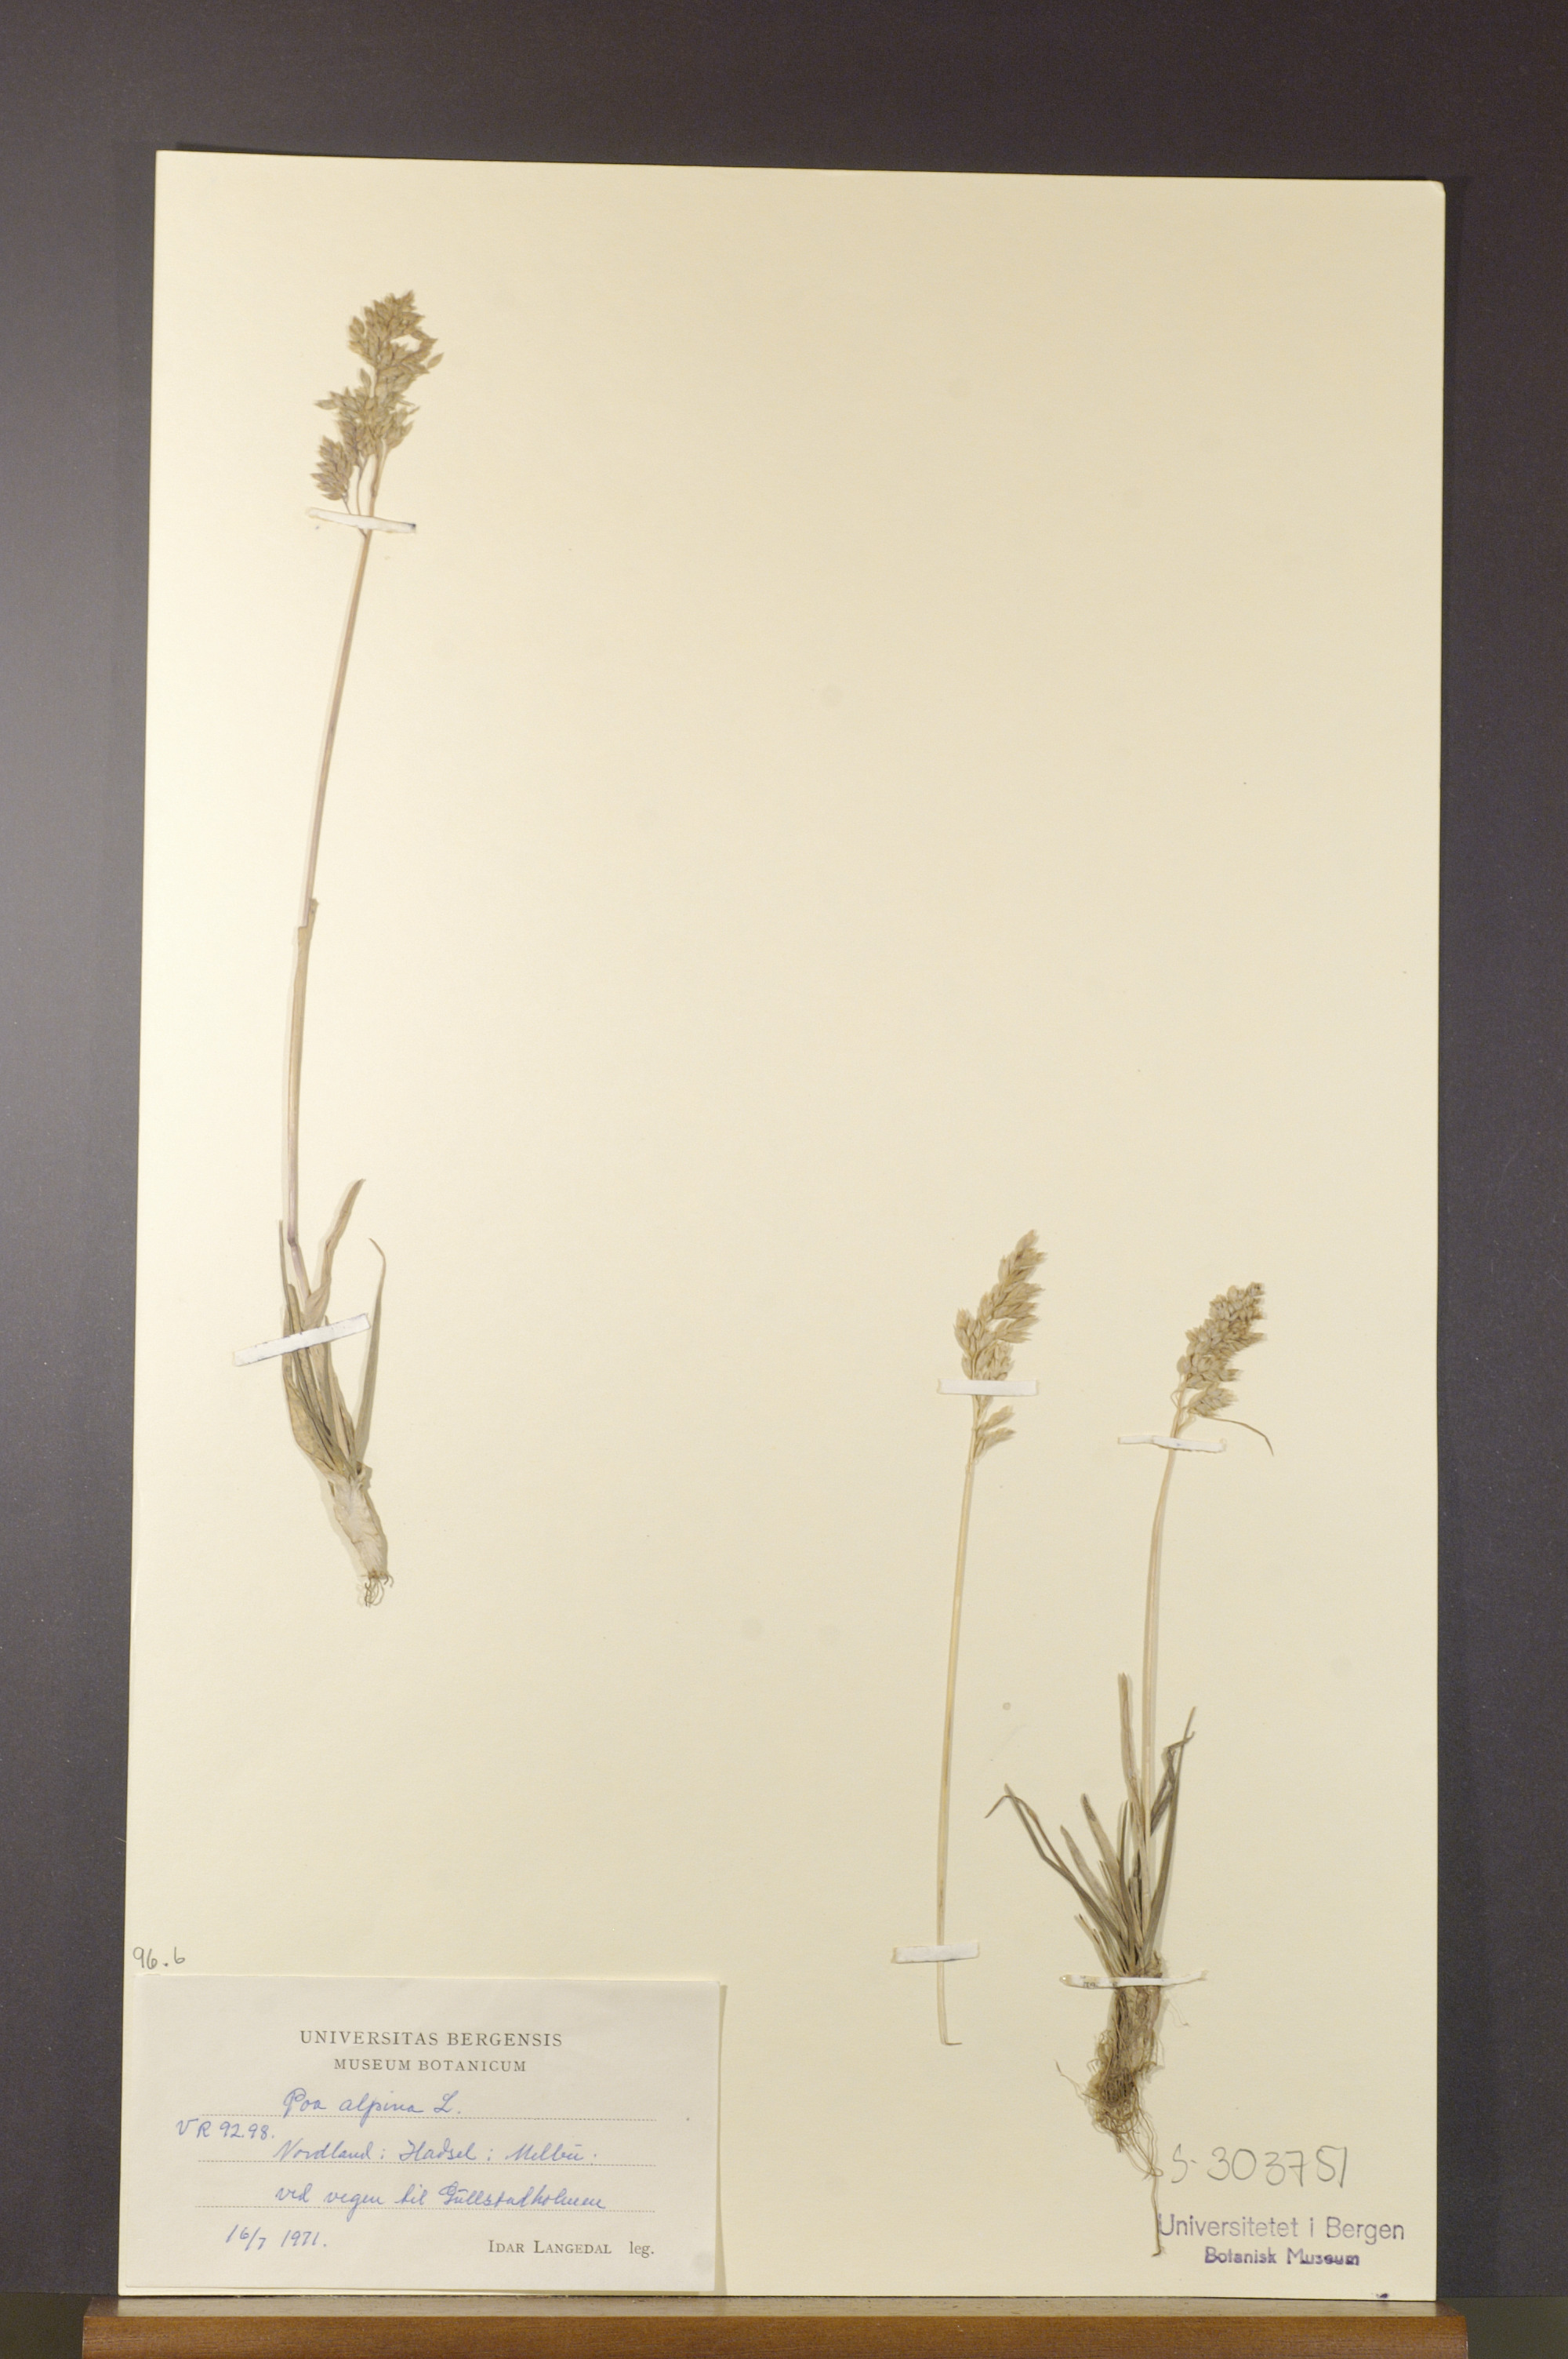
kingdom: Plantae
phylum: Tracheophyta
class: Liliopsida
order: Poales
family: Poaceae
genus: Poa
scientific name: Poa alpina
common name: Alpine bluegrass
